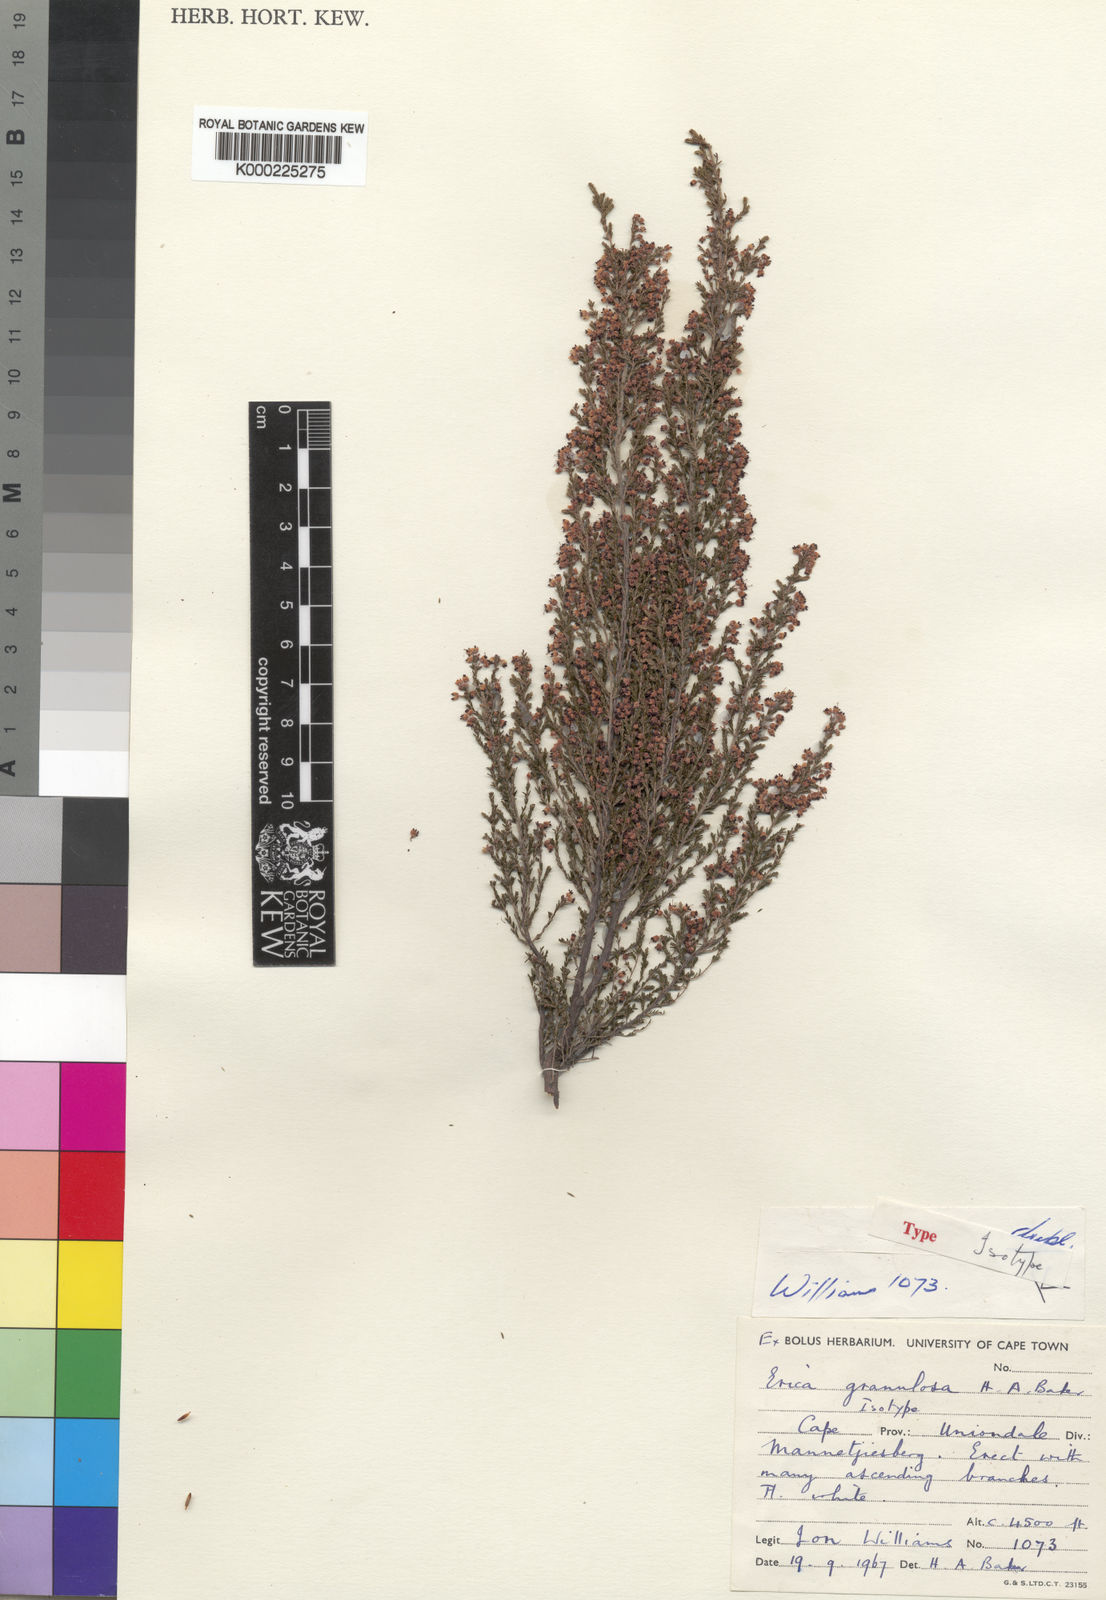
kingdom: Plantae
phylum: Tracheophyta
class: Magnoliopsida
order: Ericales
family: Ericaceae
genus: Erica
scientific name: Erica granulosa
